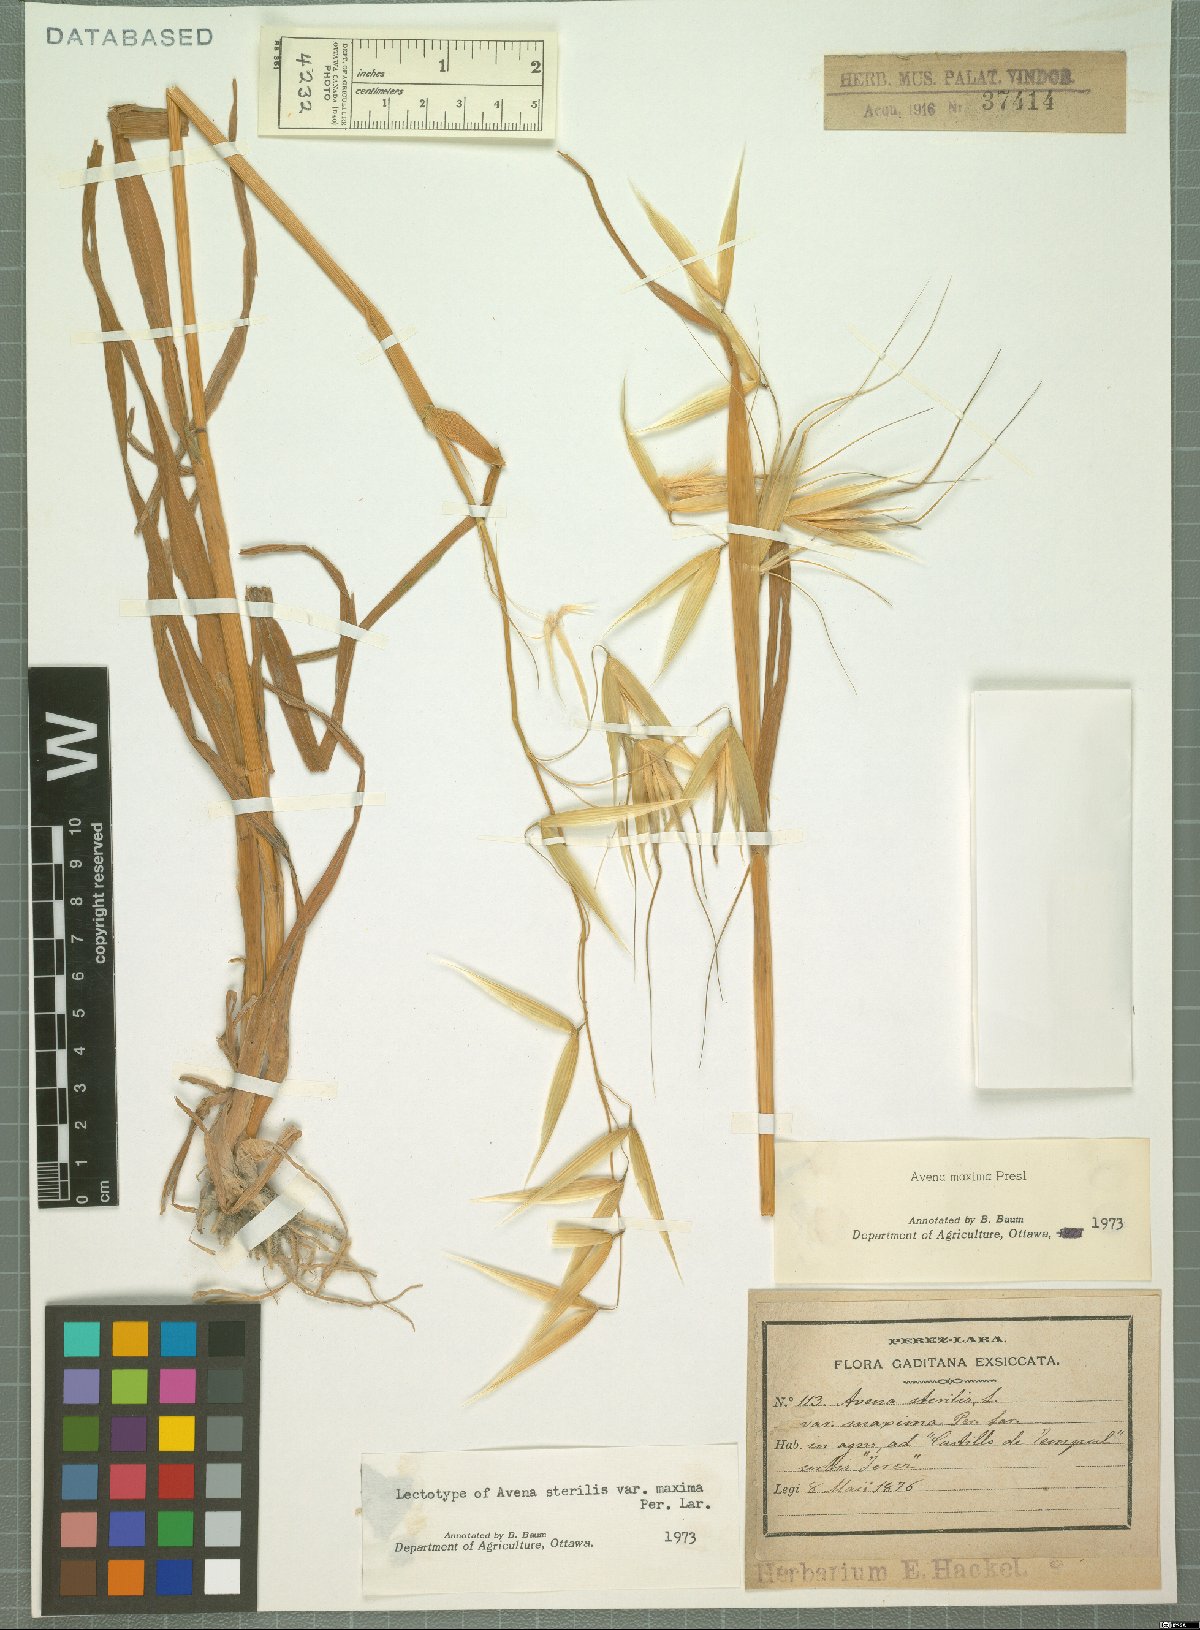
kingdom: Plantae
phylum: Tracheophyta
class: Liliopsida
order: Poales
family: Poaceae
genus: Avena
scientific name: Avena barbata
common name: Slender oat
